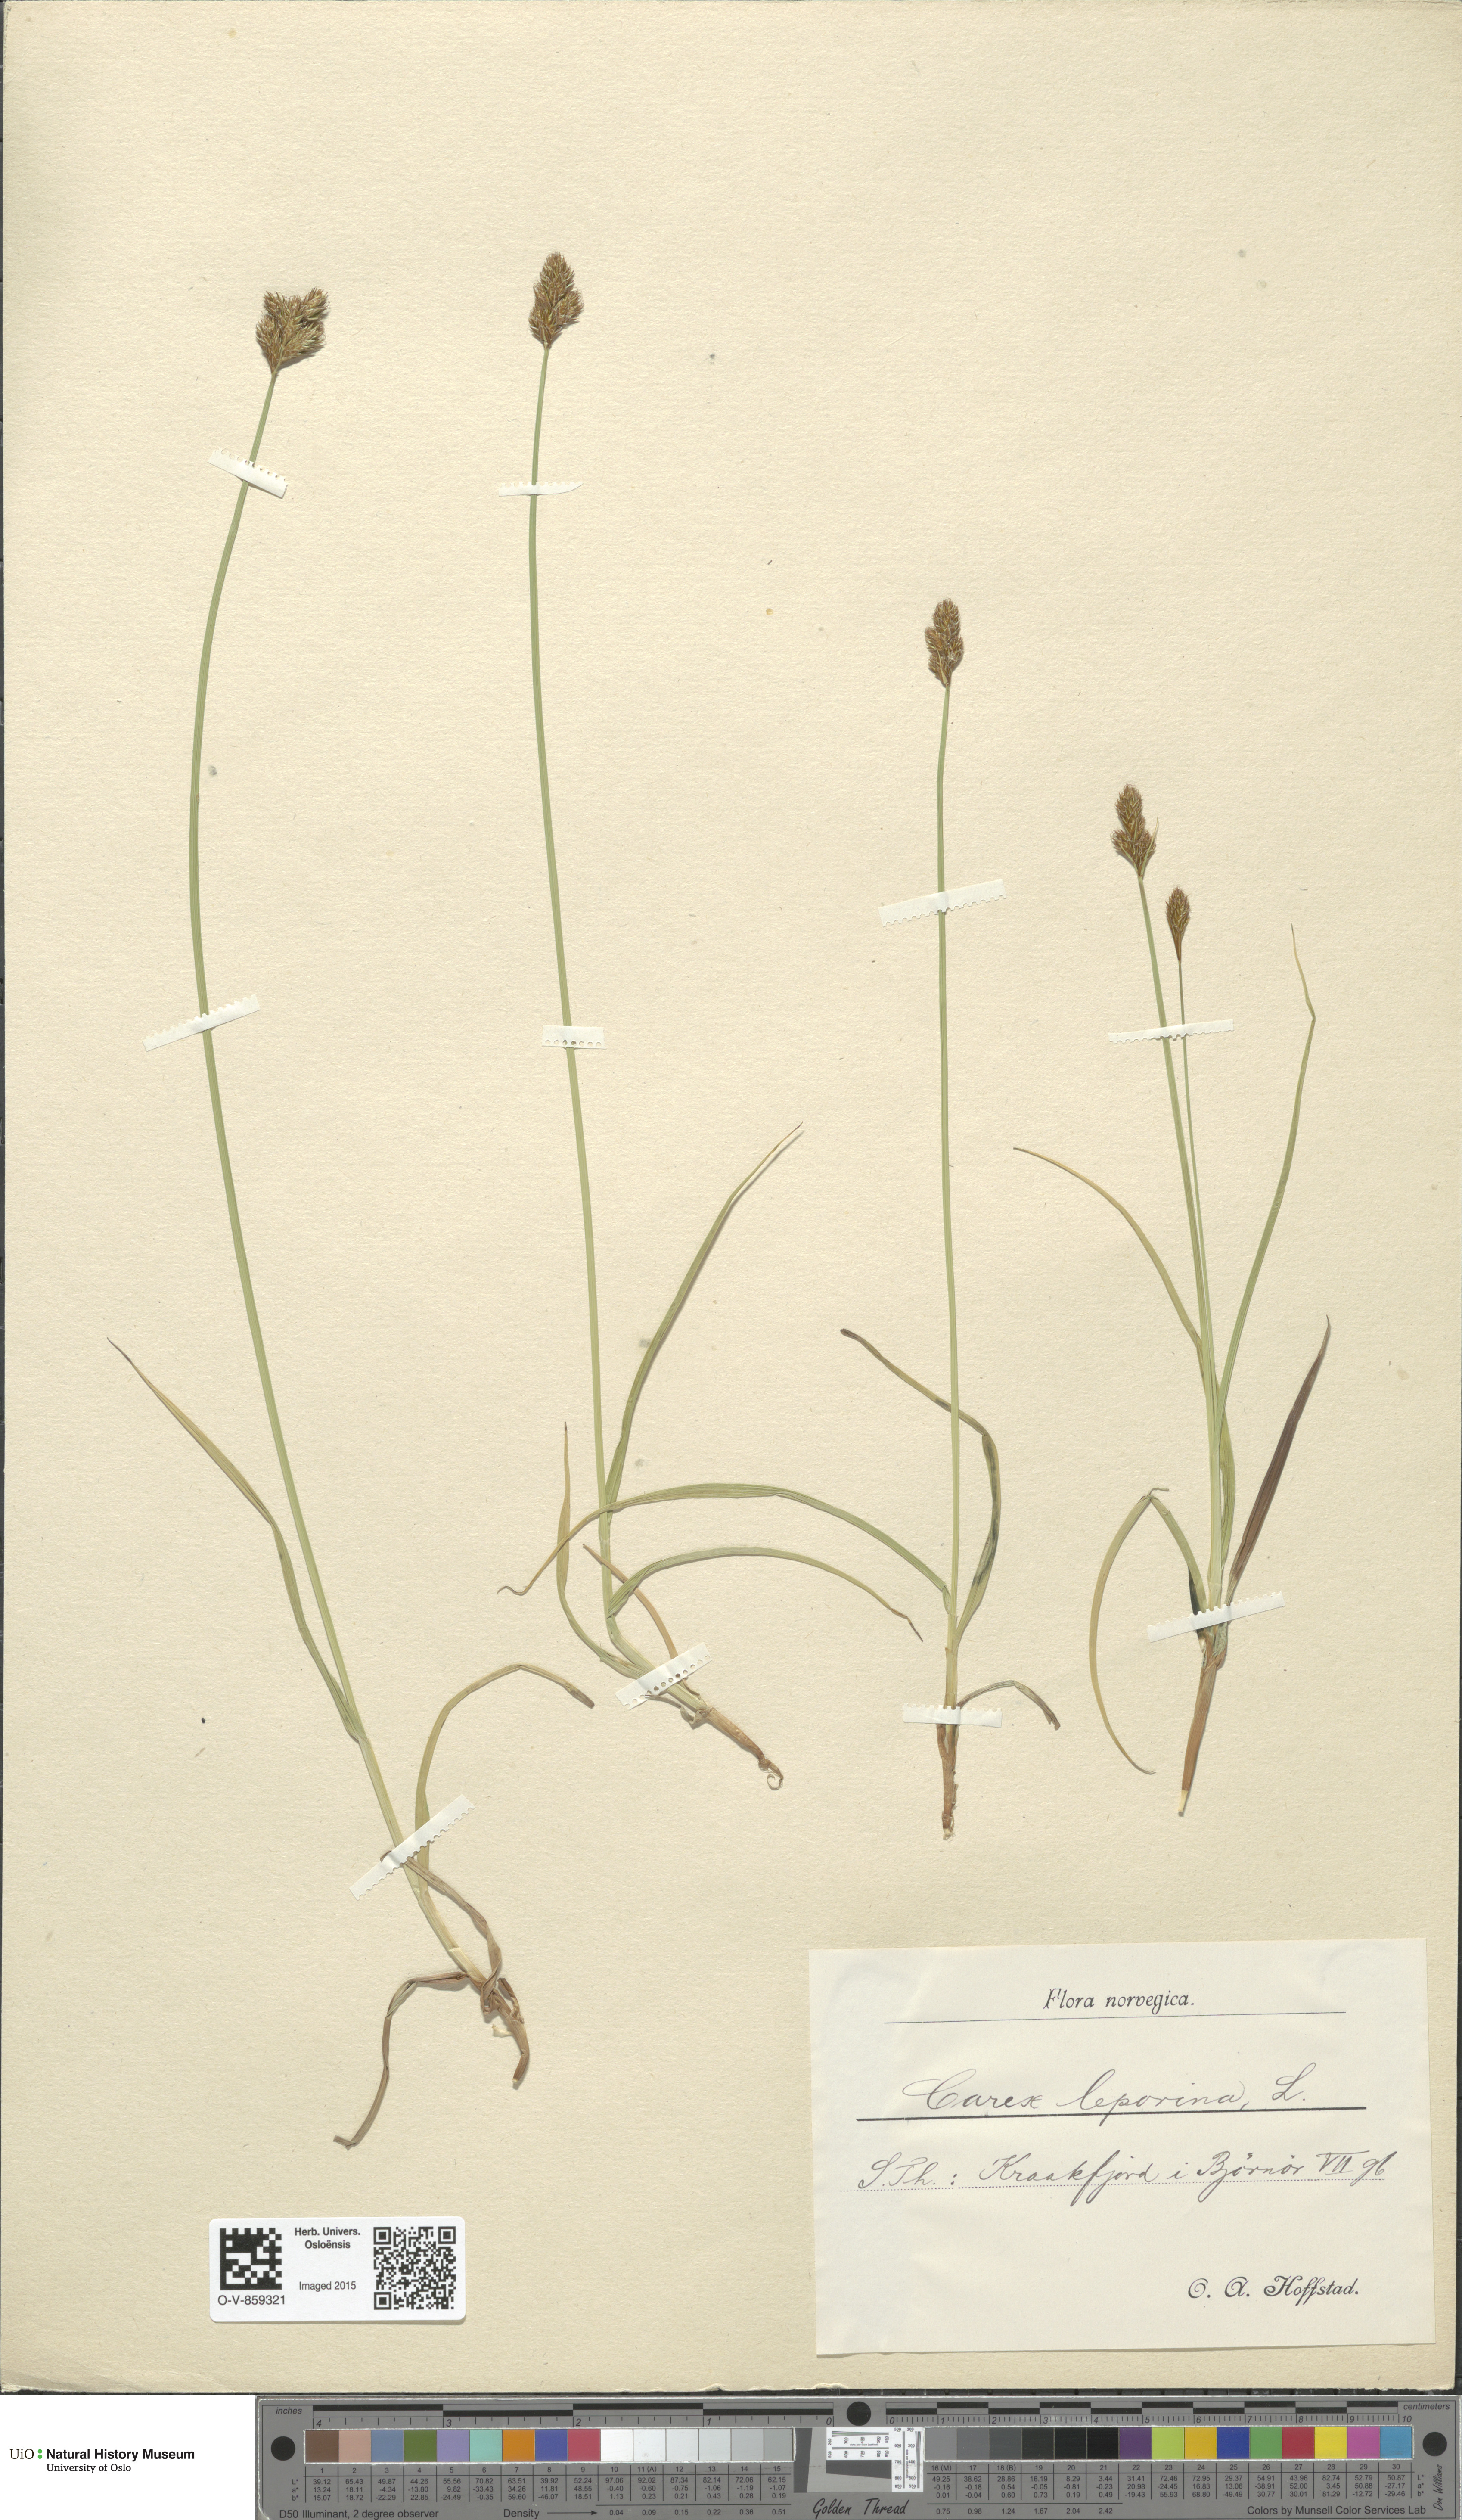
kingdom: Plantae
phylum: Tracheophyta
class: Liliopsida
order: Poales
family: Cyperaceae
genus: Carex
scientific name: Carex leporina
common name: Oval sedge
